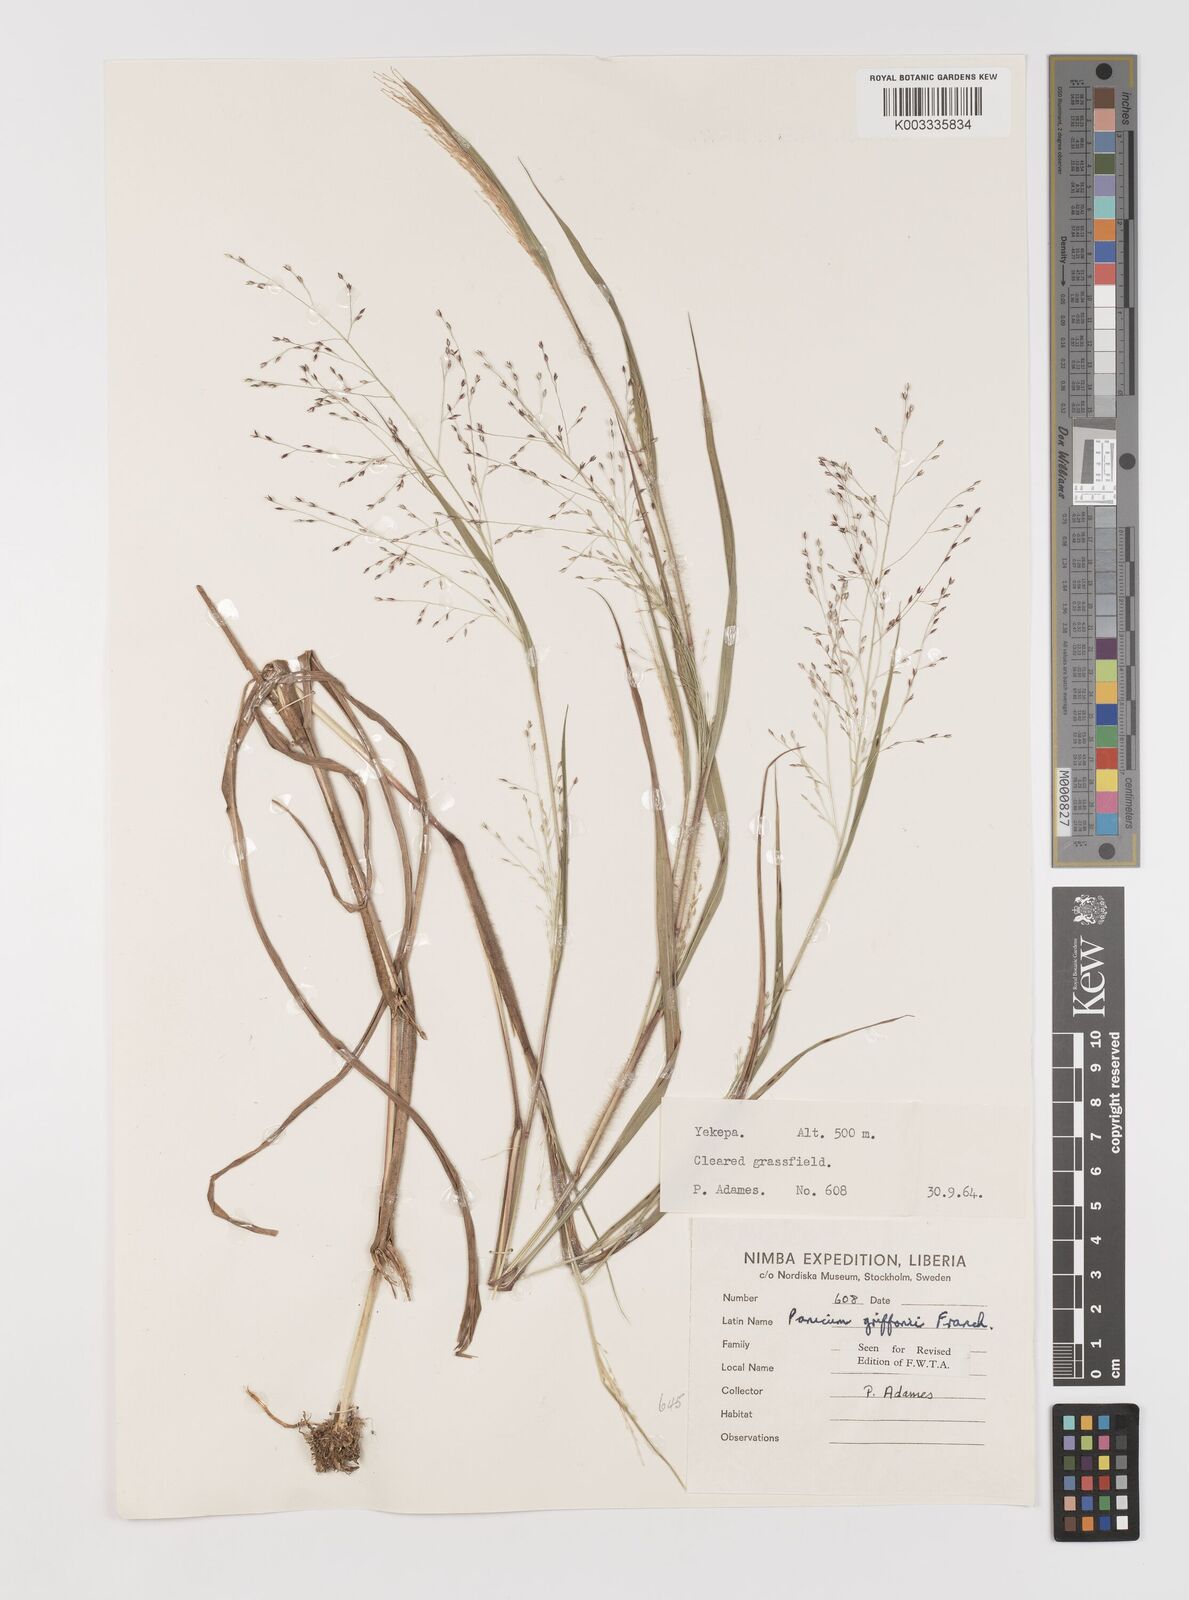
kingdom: Plantae
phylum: Tracheophyta
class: Liliopsida
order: Poales
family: Poaceae
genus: Panicum
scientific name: Panicum griffonii
